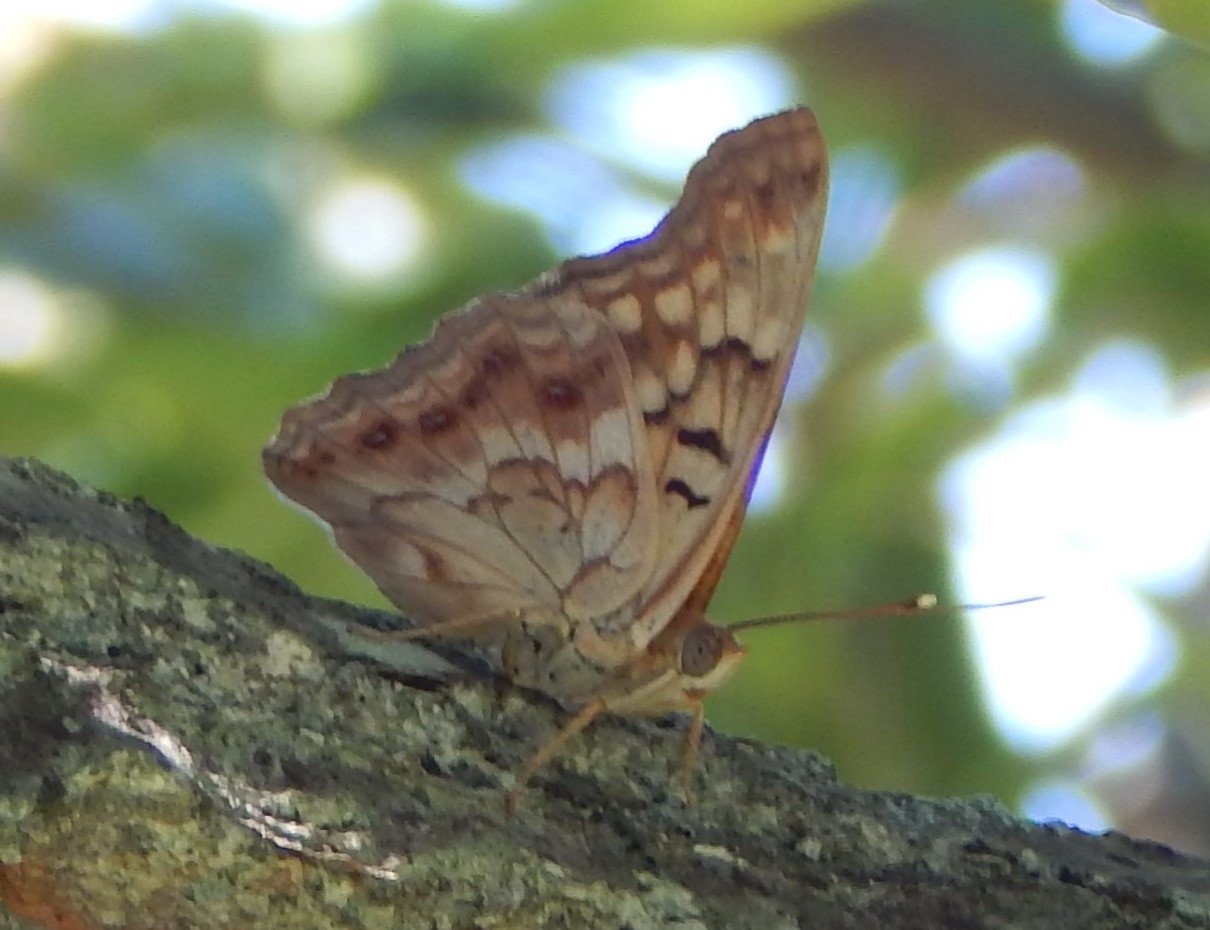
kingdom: Animalia
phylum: Arthropoda
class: Insecta
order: Lepidoptera
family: Nymphalidae
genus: Asterocampa
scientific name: Asterocampa clyton
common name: Tawny Emperor
